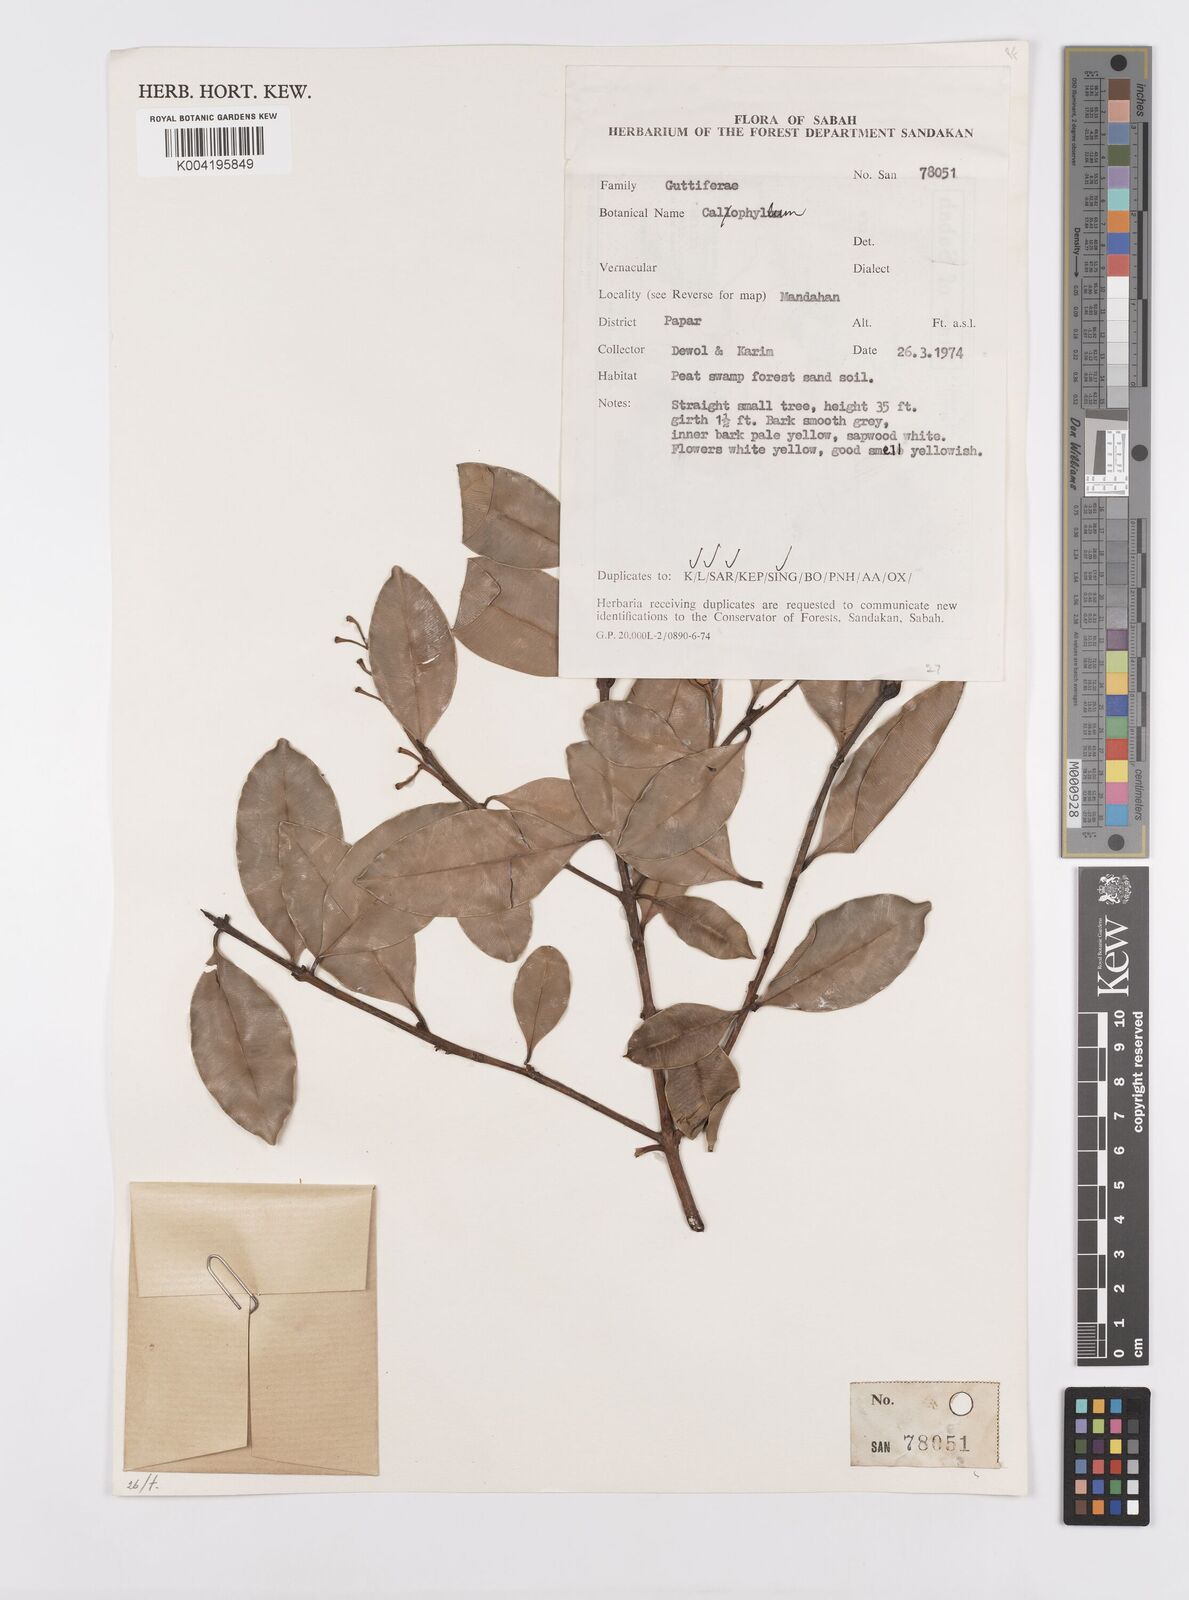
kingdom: Plantae
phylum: Tracheophyta
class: Magnoliopsida
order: Malpighiales
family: Calophyllaceae
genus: Calophyllum
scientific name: Calophyllum tetrapterum
